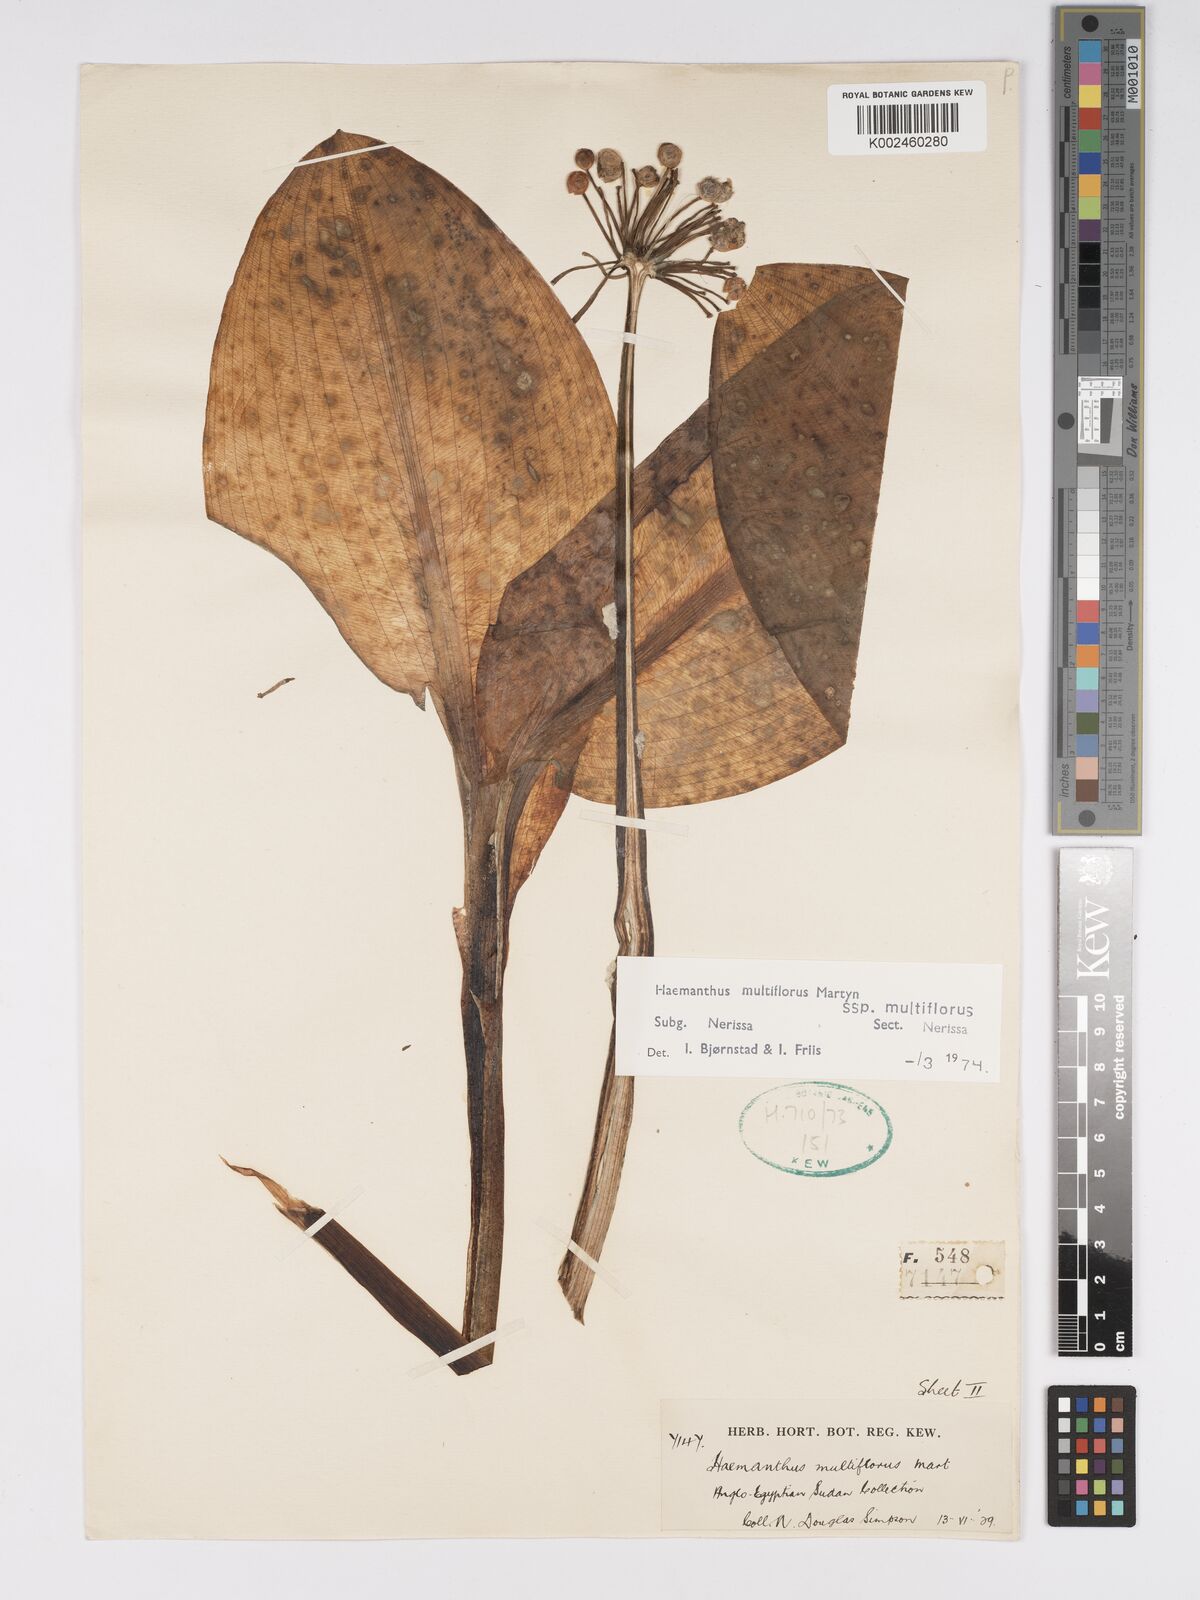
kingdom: Plantae
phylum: Tracheophyta
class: Liliopsida
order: Asparagales
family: Amaryllidaceae
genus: Scadoxus
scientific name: Scadoxus multiflorus
